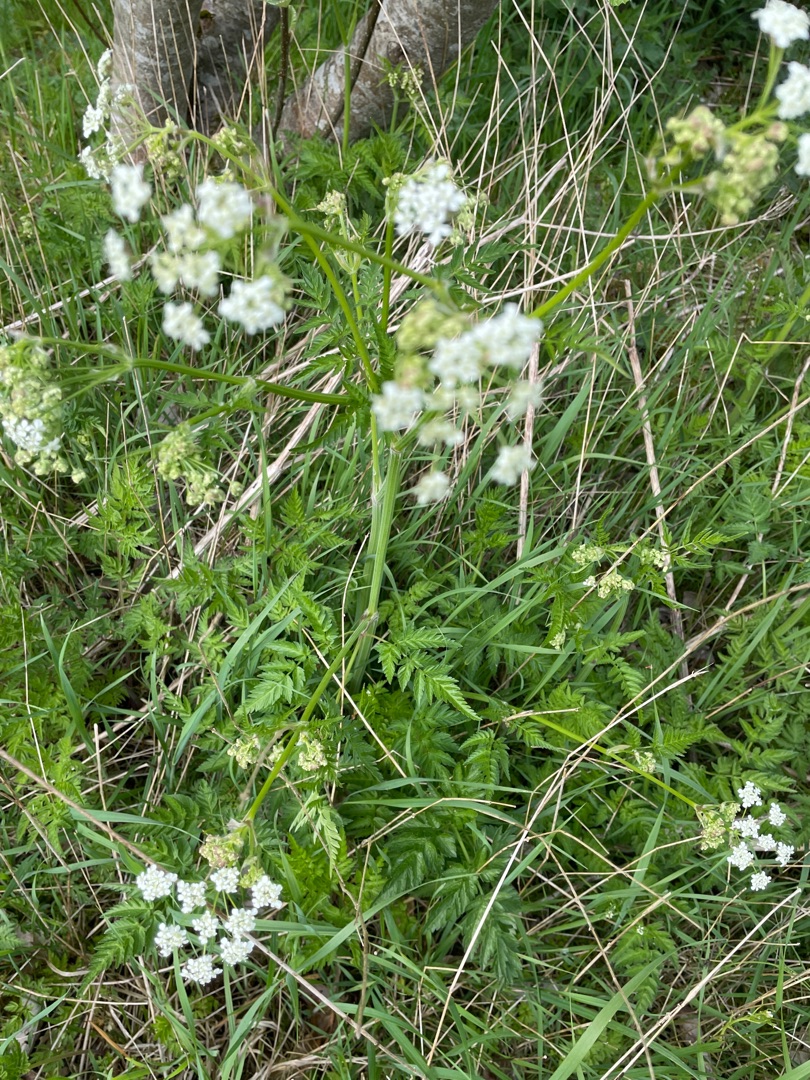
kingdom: Plantae
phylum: Tracheophyta
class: Magnoliopsida
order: Apiales
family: Apiaceae
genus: Anthriscus
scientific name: Anthriscus sylvestris
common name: Vild kørvel
